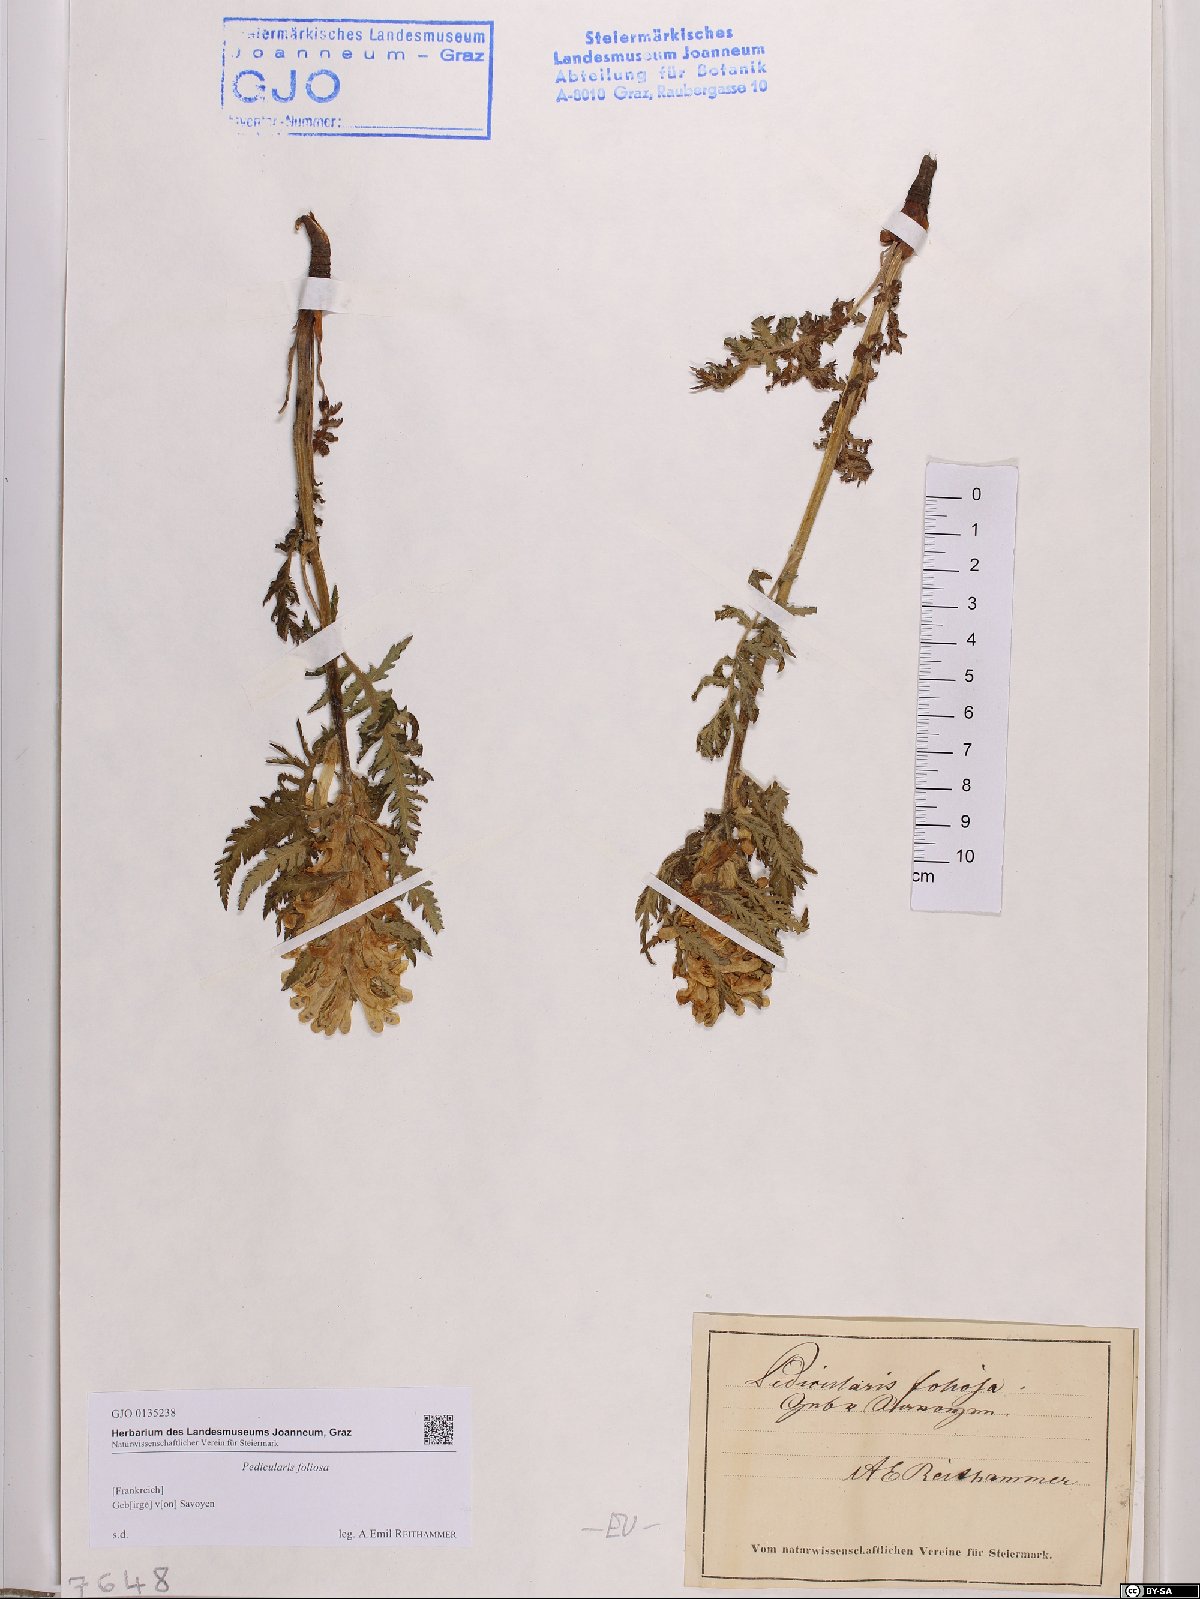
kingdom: Plantae
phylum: Tracheophyta
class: Magnoliopsida
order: Lamiales
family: Orobanchaceae
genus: Pedicularis
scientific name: Pedicularis foliosa
